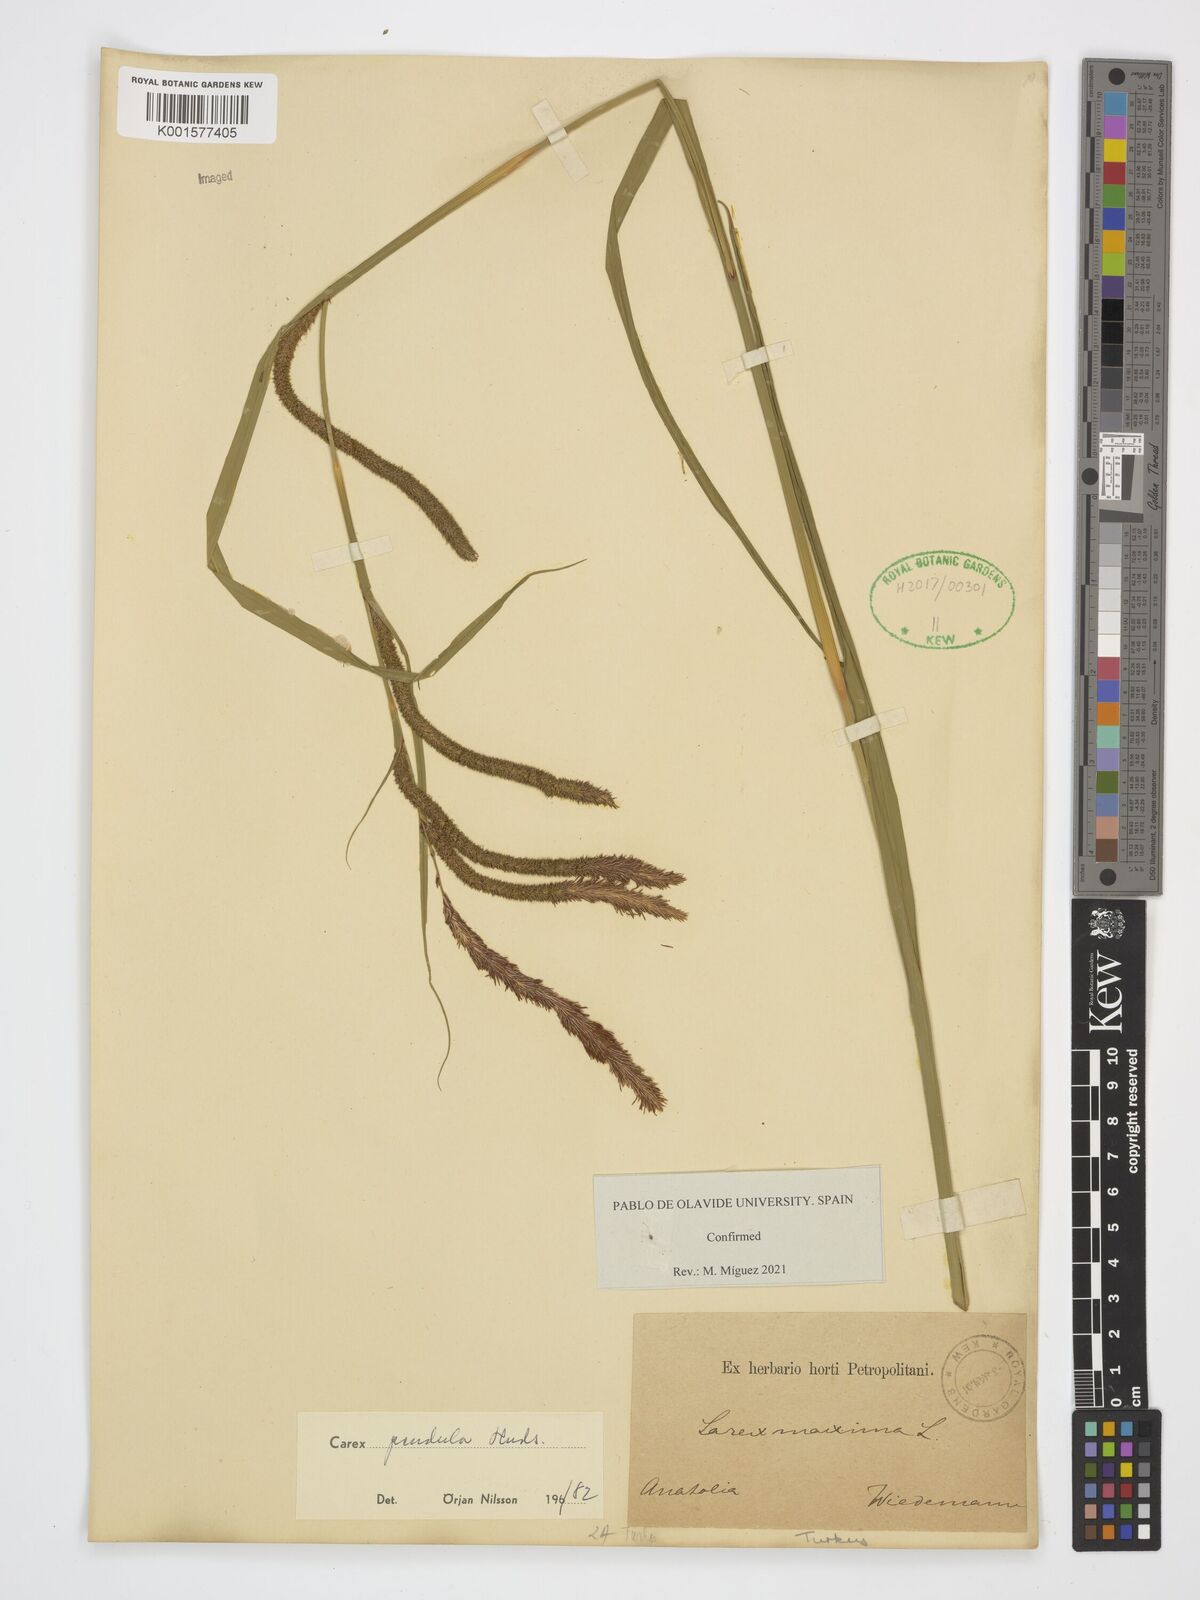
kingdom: Plantae
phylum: Tracheophyta
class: Liliopsida
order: Poales
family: Cyperaceae
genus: Carex
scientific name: Carex pendula
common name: Pendulous sedge
